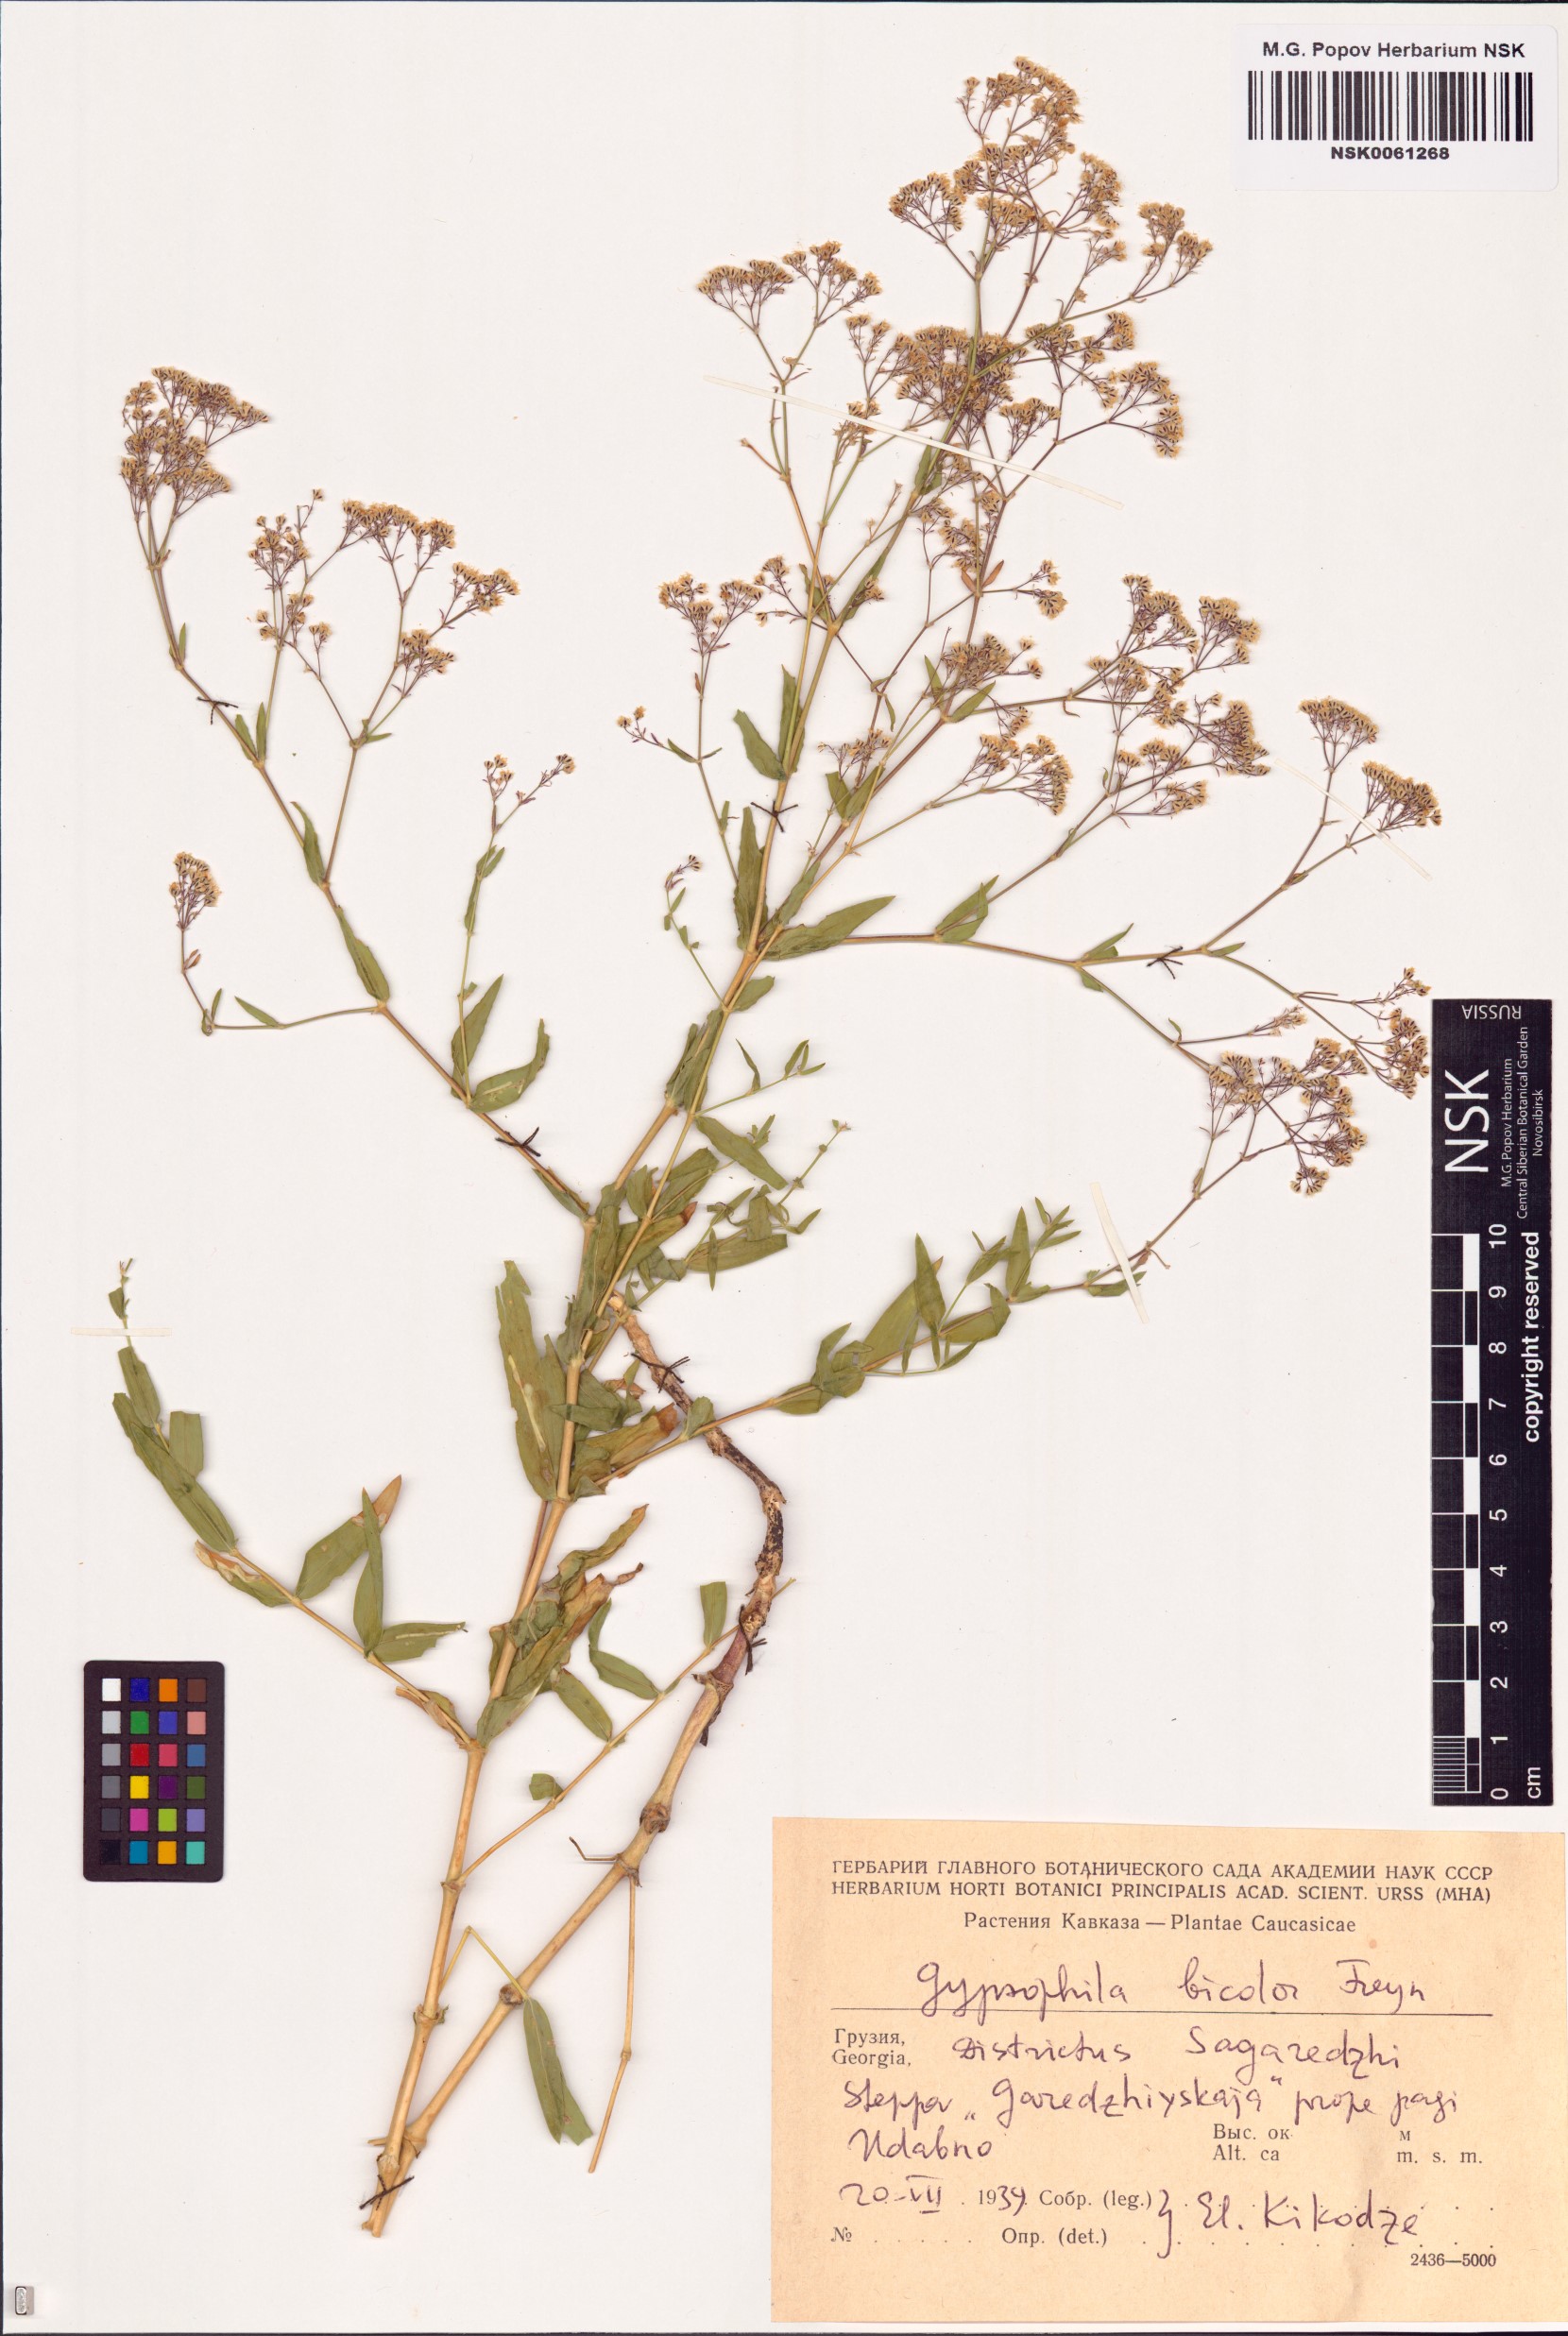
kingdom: Plantae
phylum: Tracheophyta
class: Magnoliopsida
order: Caryophyllales
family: Caryophyllaceae
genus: Gypsophila
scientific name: Gypsophila bicolor
